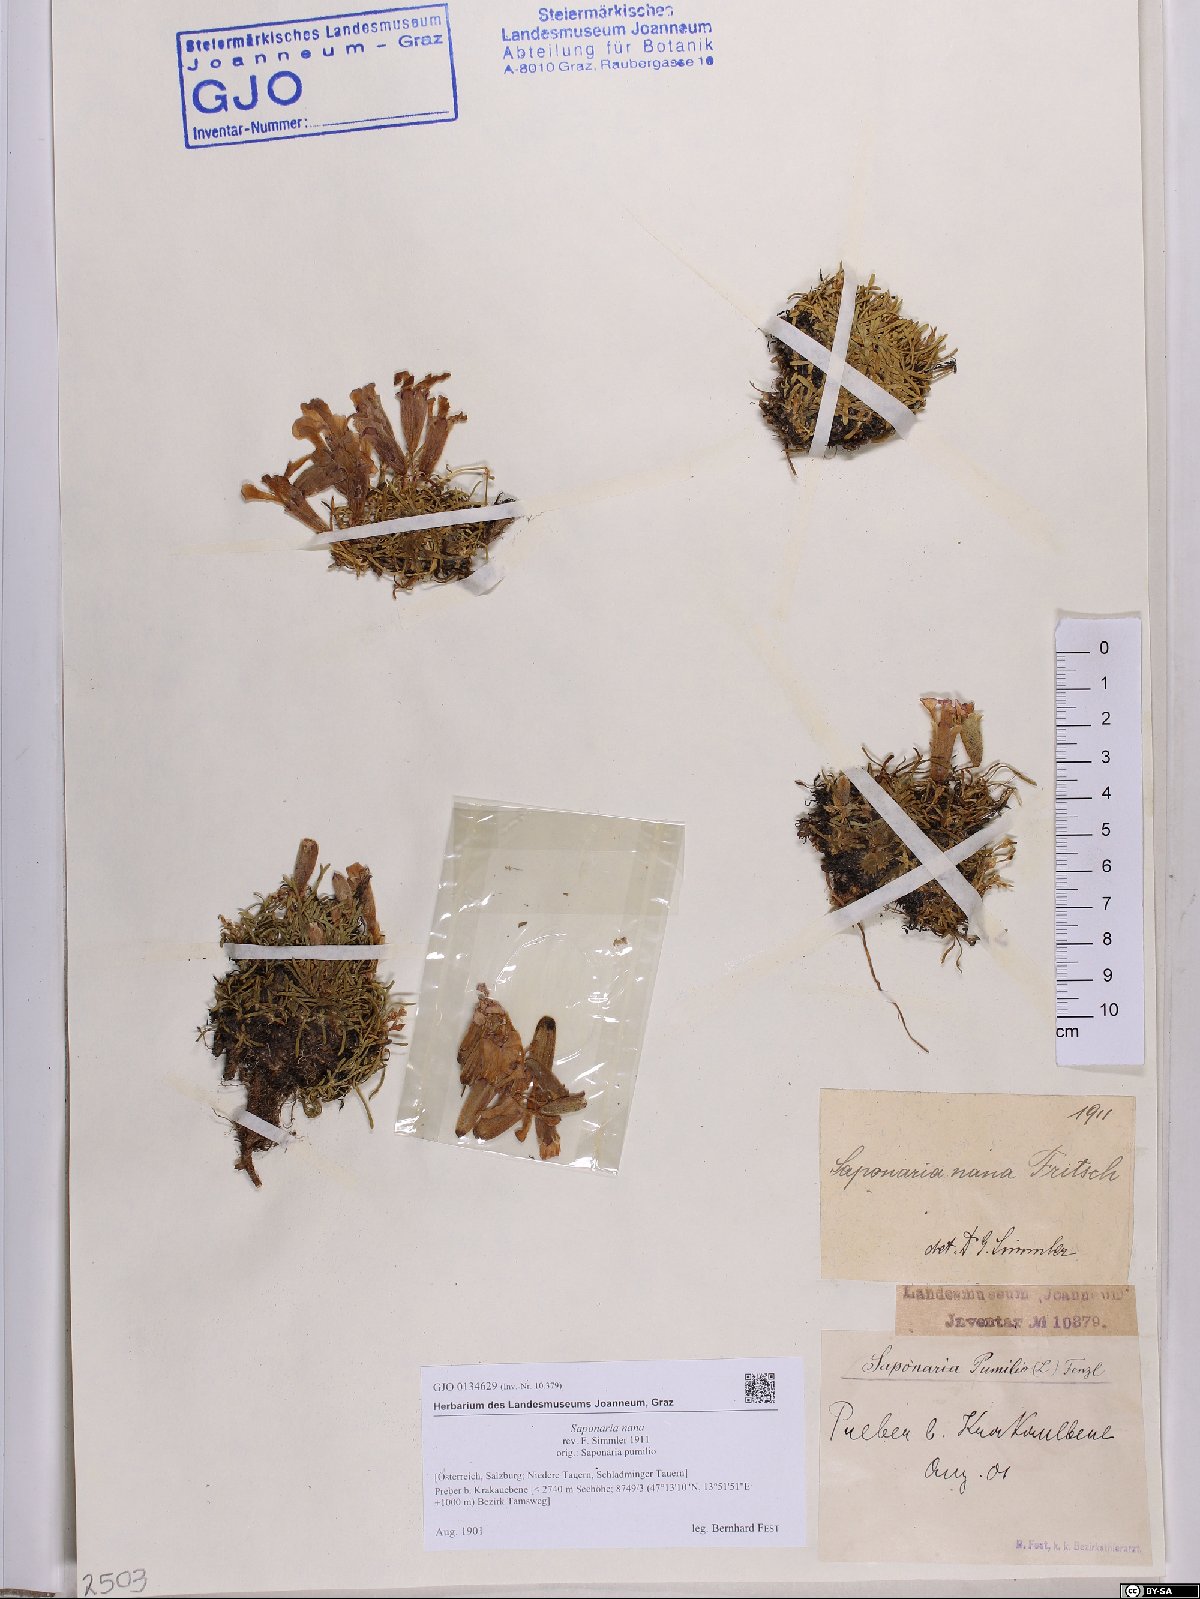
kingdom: Plantae
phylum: Tracheophyta
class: Magnoliopsida
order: Caryophyllales
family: Caryophyllaceae
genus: Saponaria
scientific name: Saponaria pumila
